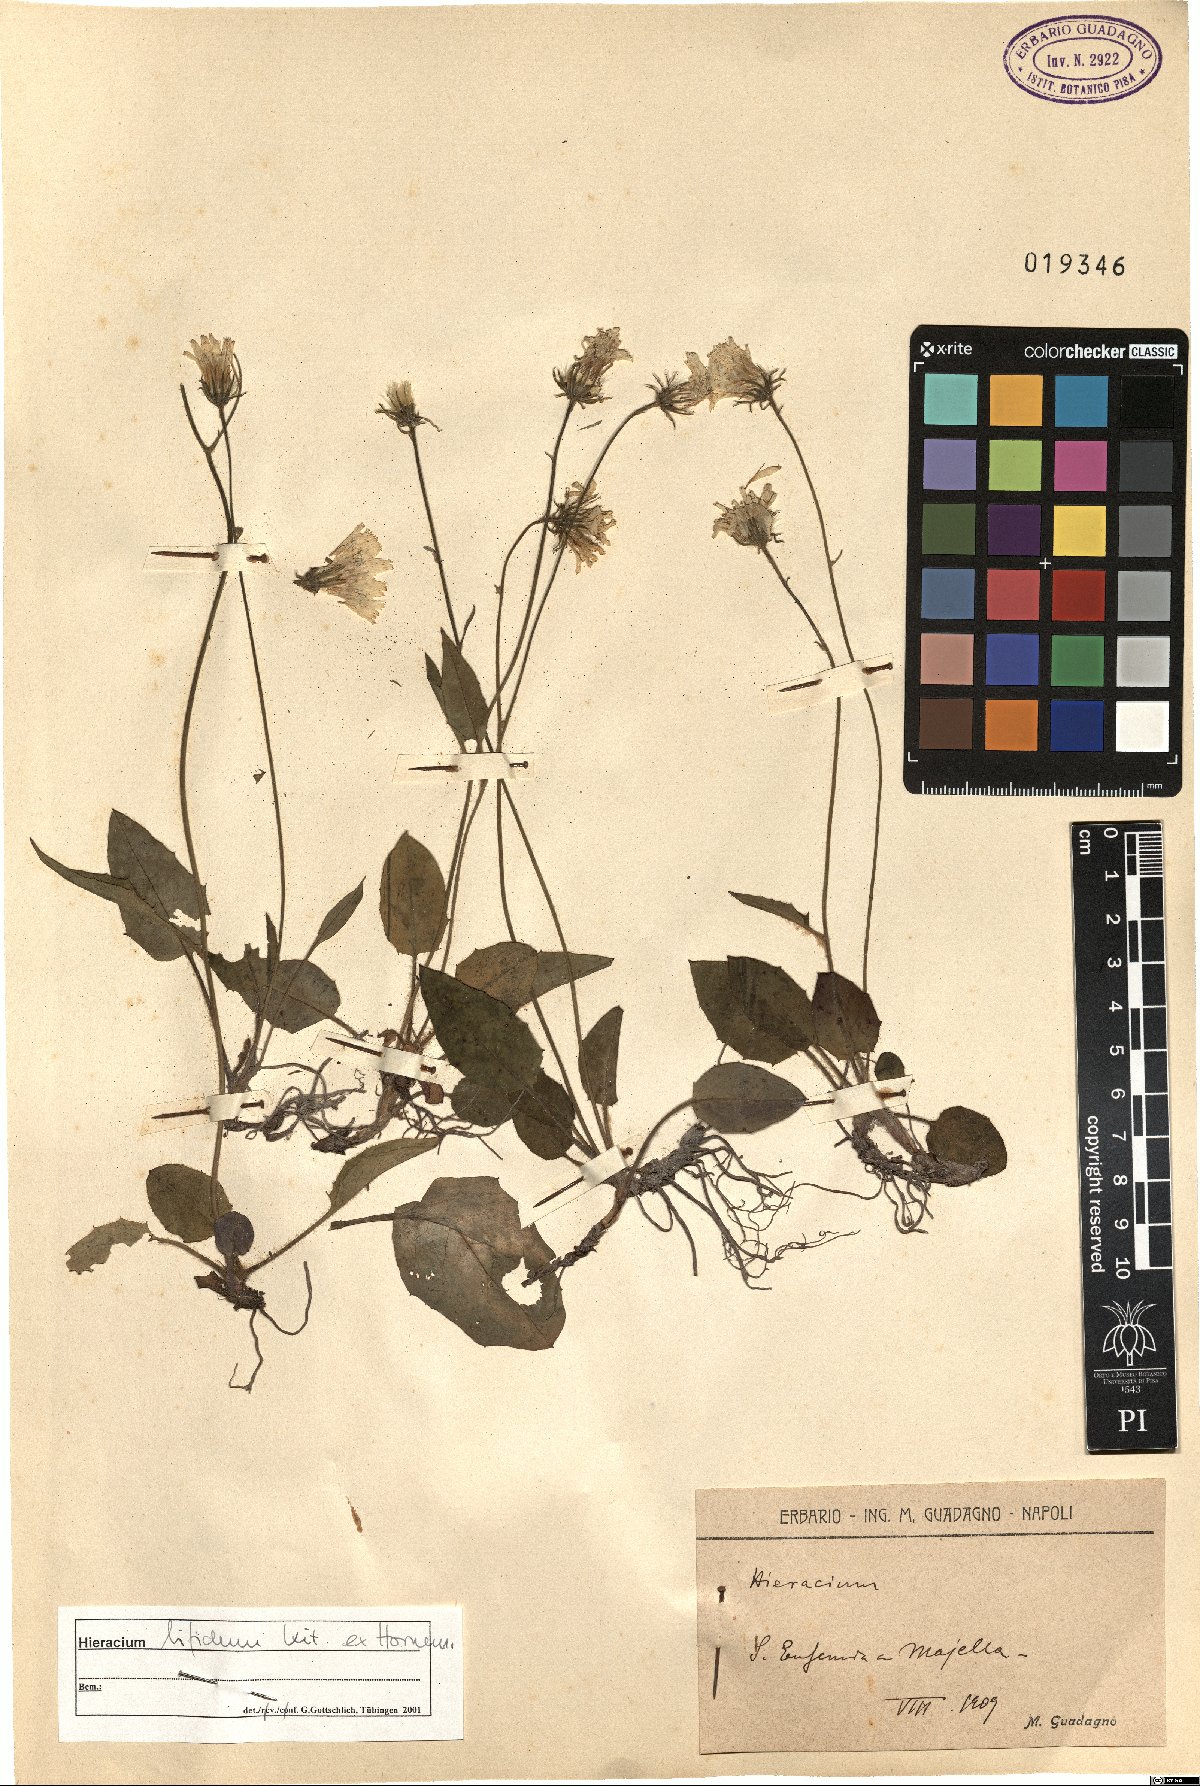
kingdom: Plantae
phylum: Tracheophyta
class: Magnoliopsida
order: Asterales
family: Asteraceae
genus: Hieracium
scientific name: Hieracium bifidum
